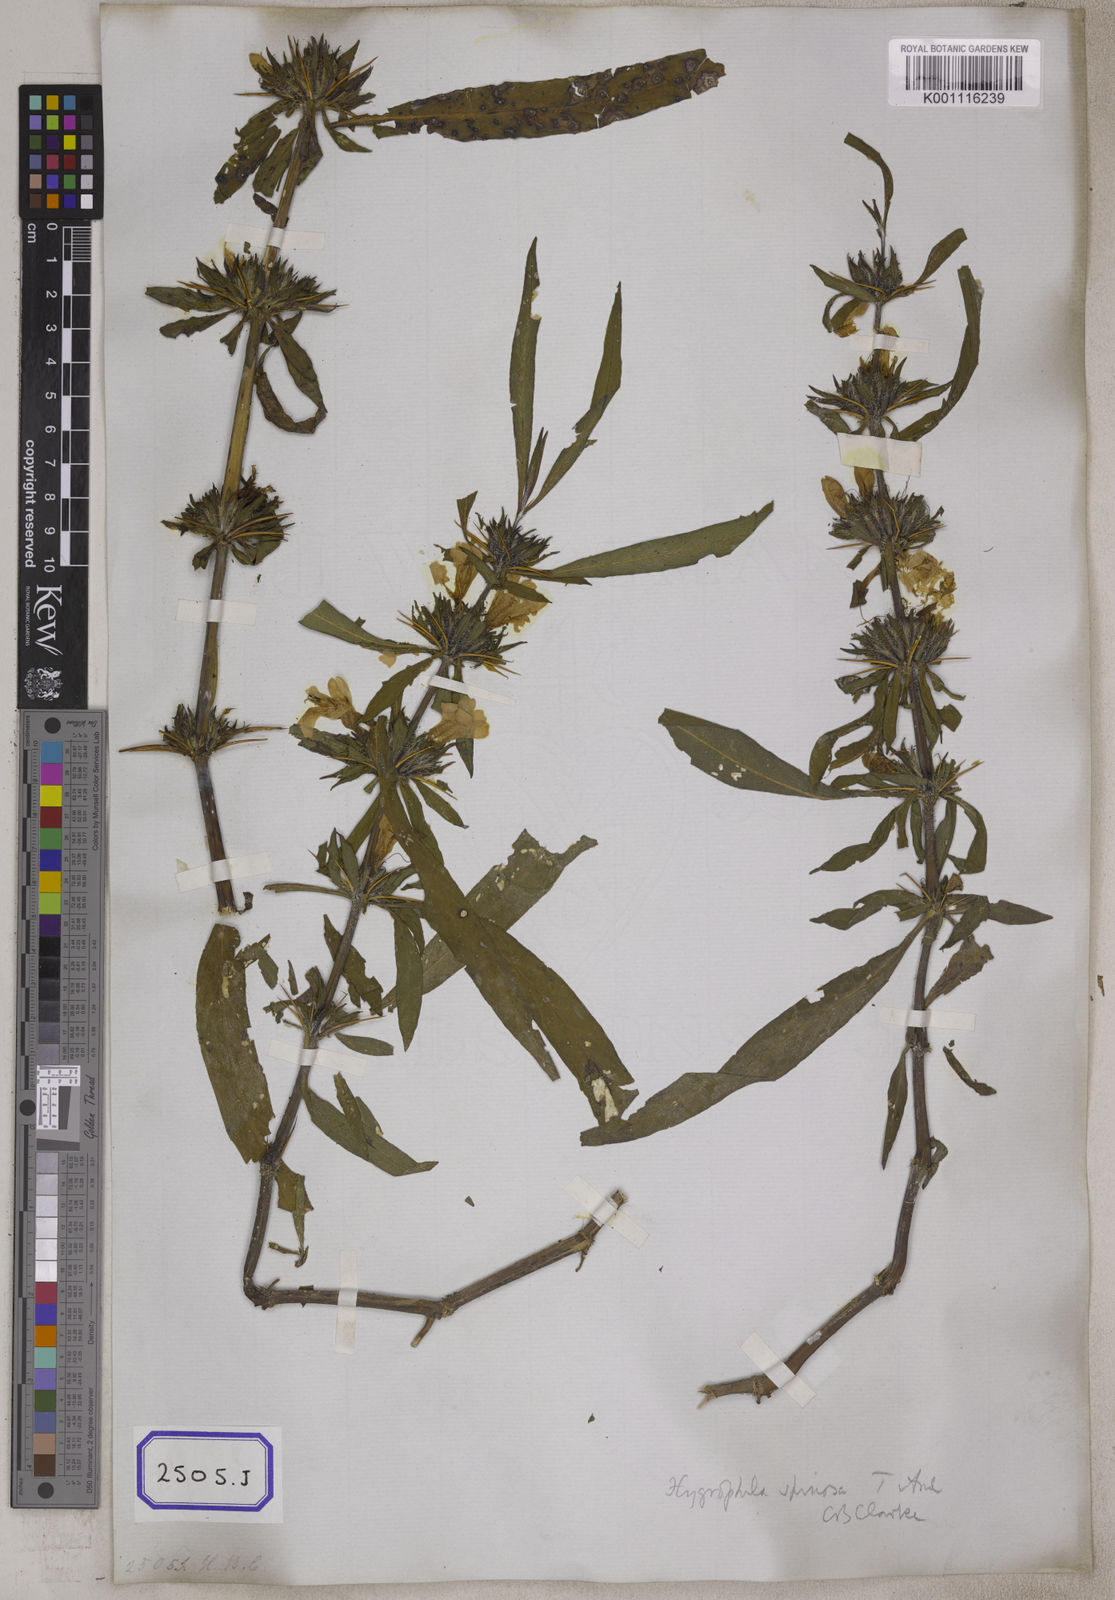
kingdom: Plantae
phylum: Tracheophyta
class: Magnoliopsida
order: Lamiales
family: Acanthaceae
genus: Barleria
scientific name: Barleria longiflora
